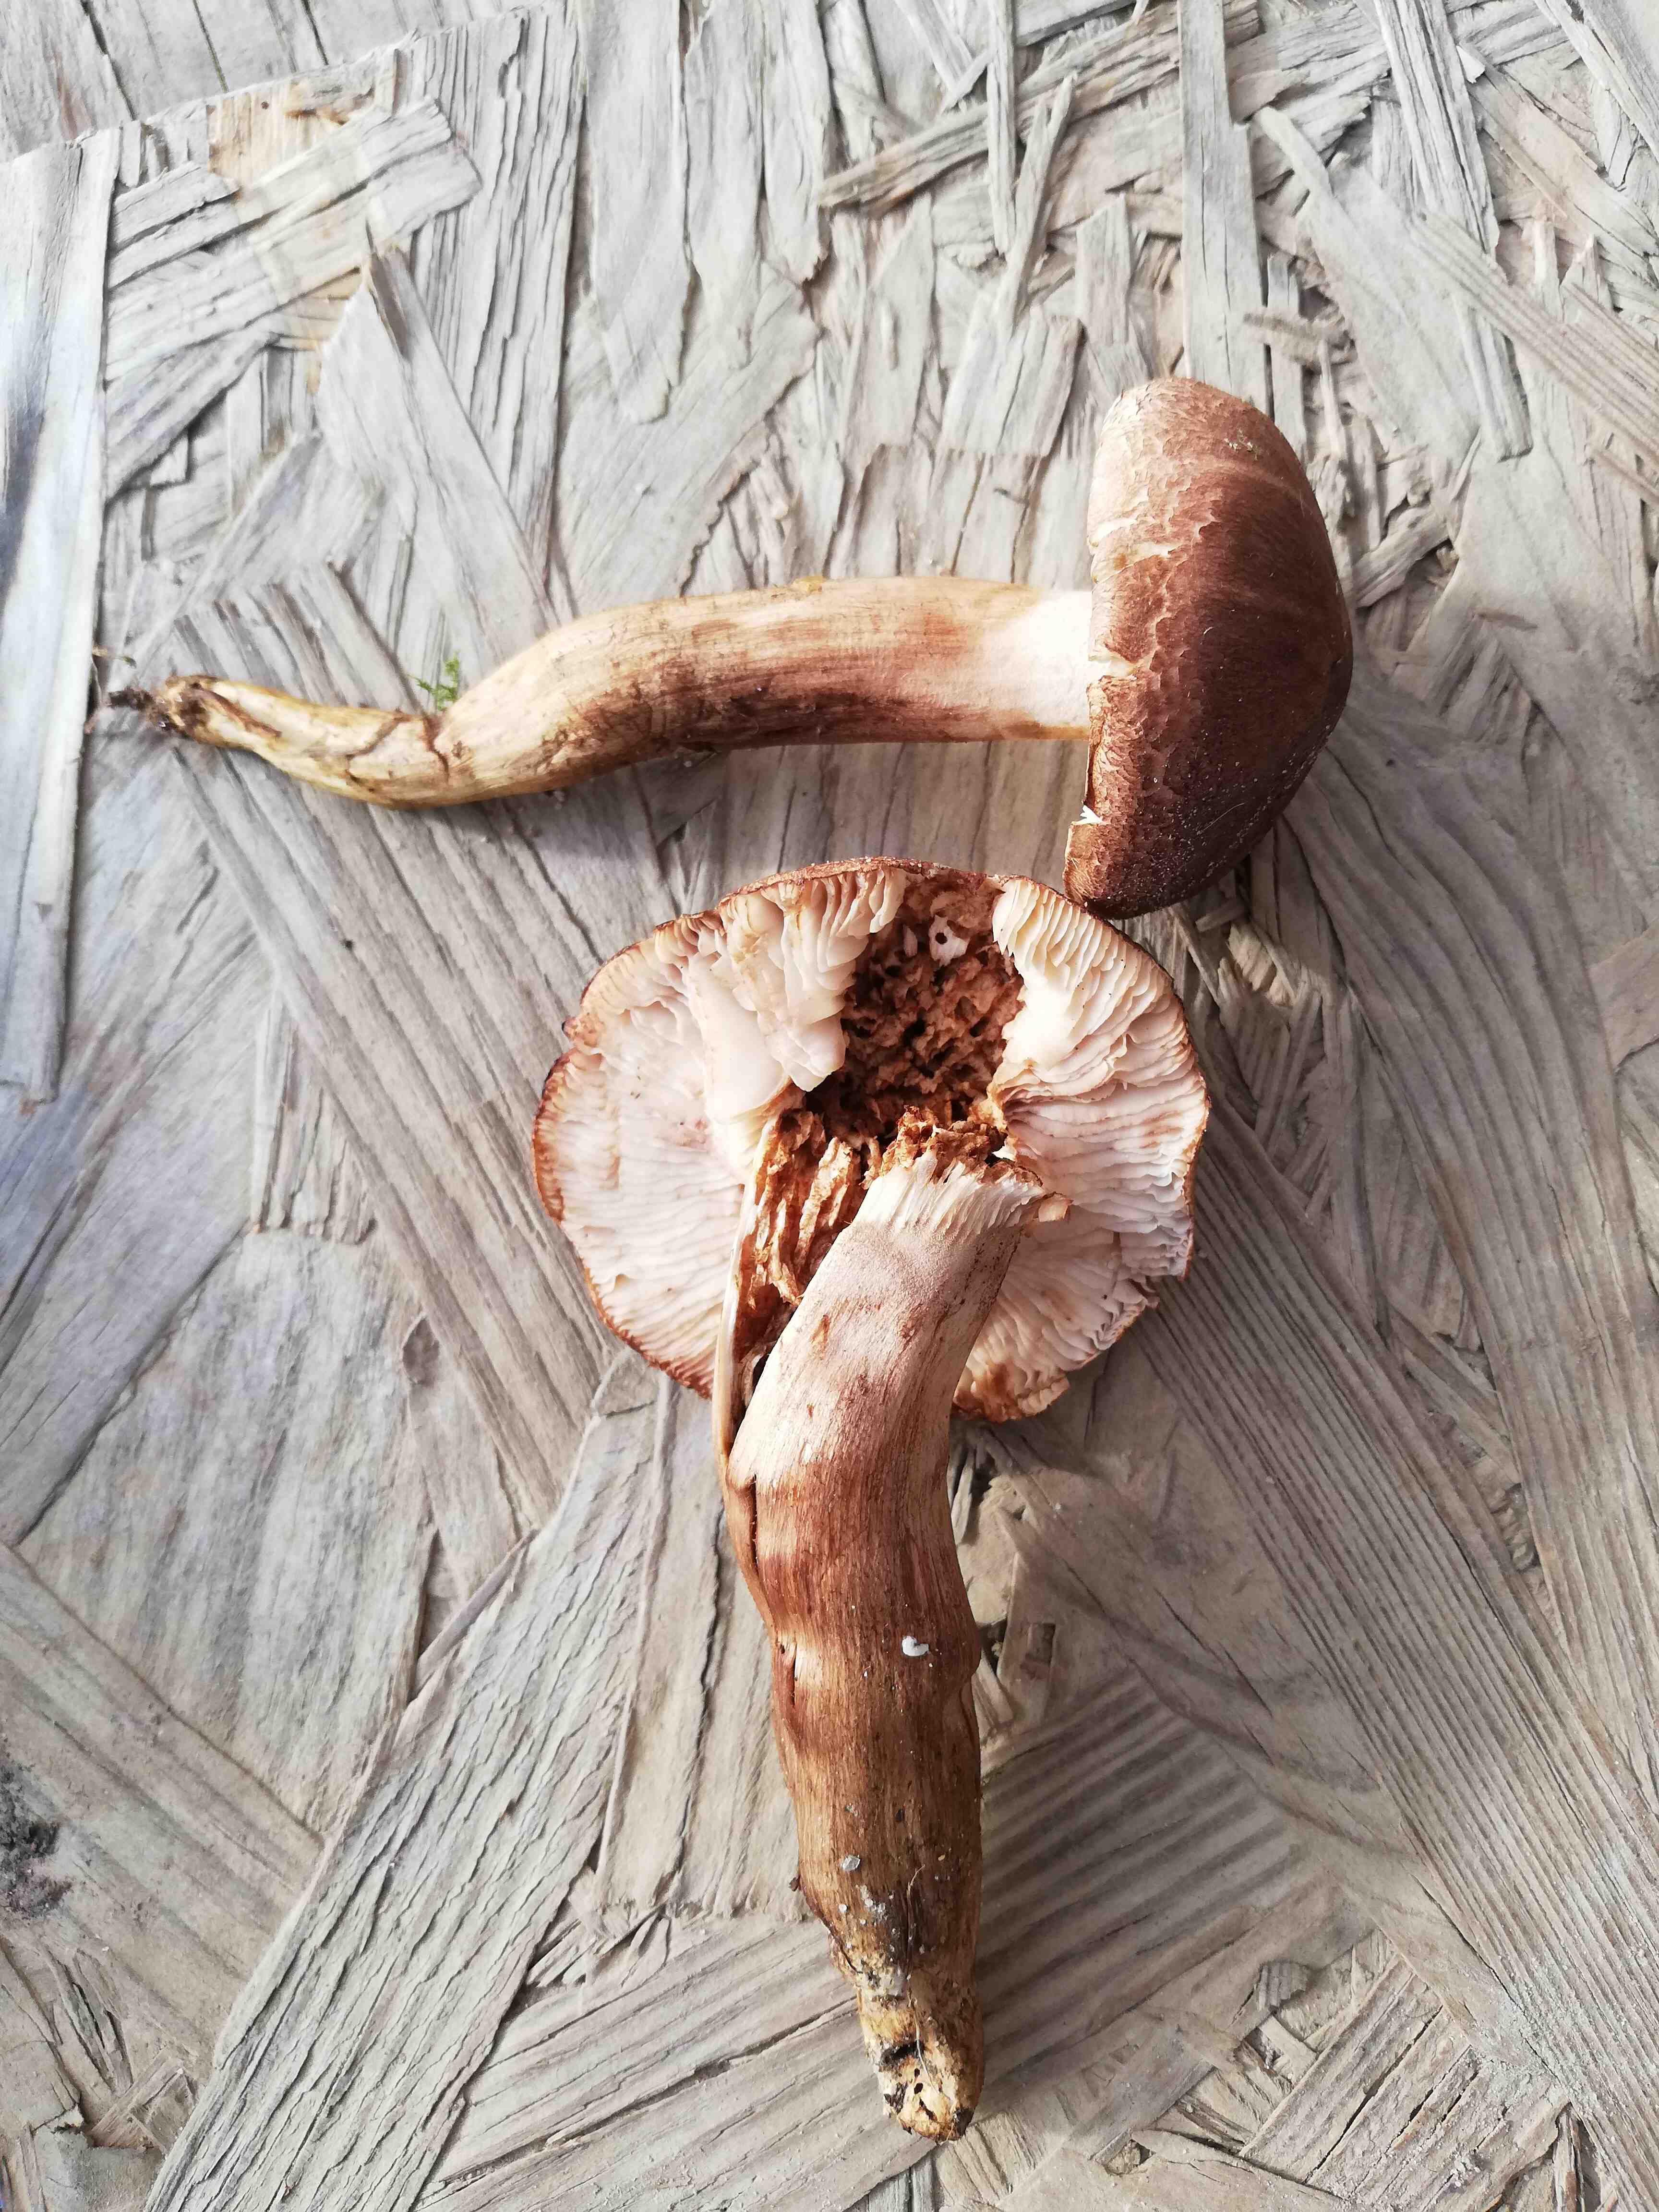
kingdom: Fungi
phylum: Basidiomycota
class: Agaricomycetes
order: Agaricales
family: Tricholomataceae
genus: Tricholoma
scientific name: Tricholoma imbricatum
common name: skællet ridderhat
